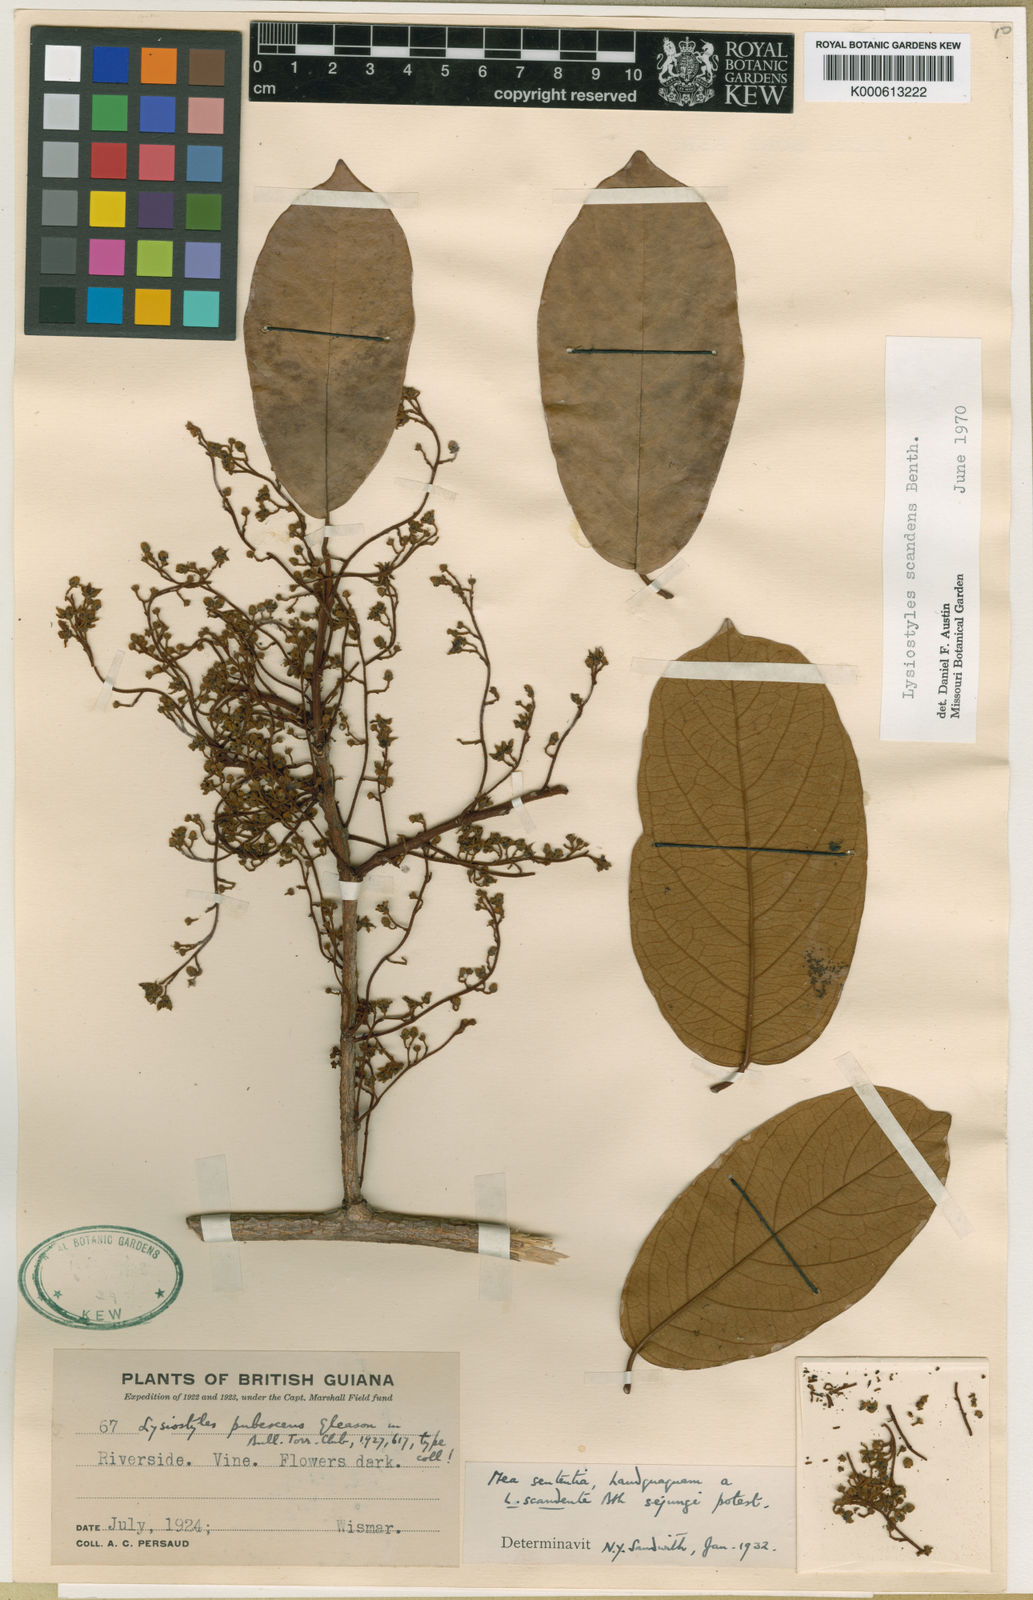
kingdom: Plantae
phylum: Tracheophyta
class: Magnoliopsida
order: Solanales
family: Convolvulaceae
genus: Lysiostyles
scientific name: Lysiostyles scandens
